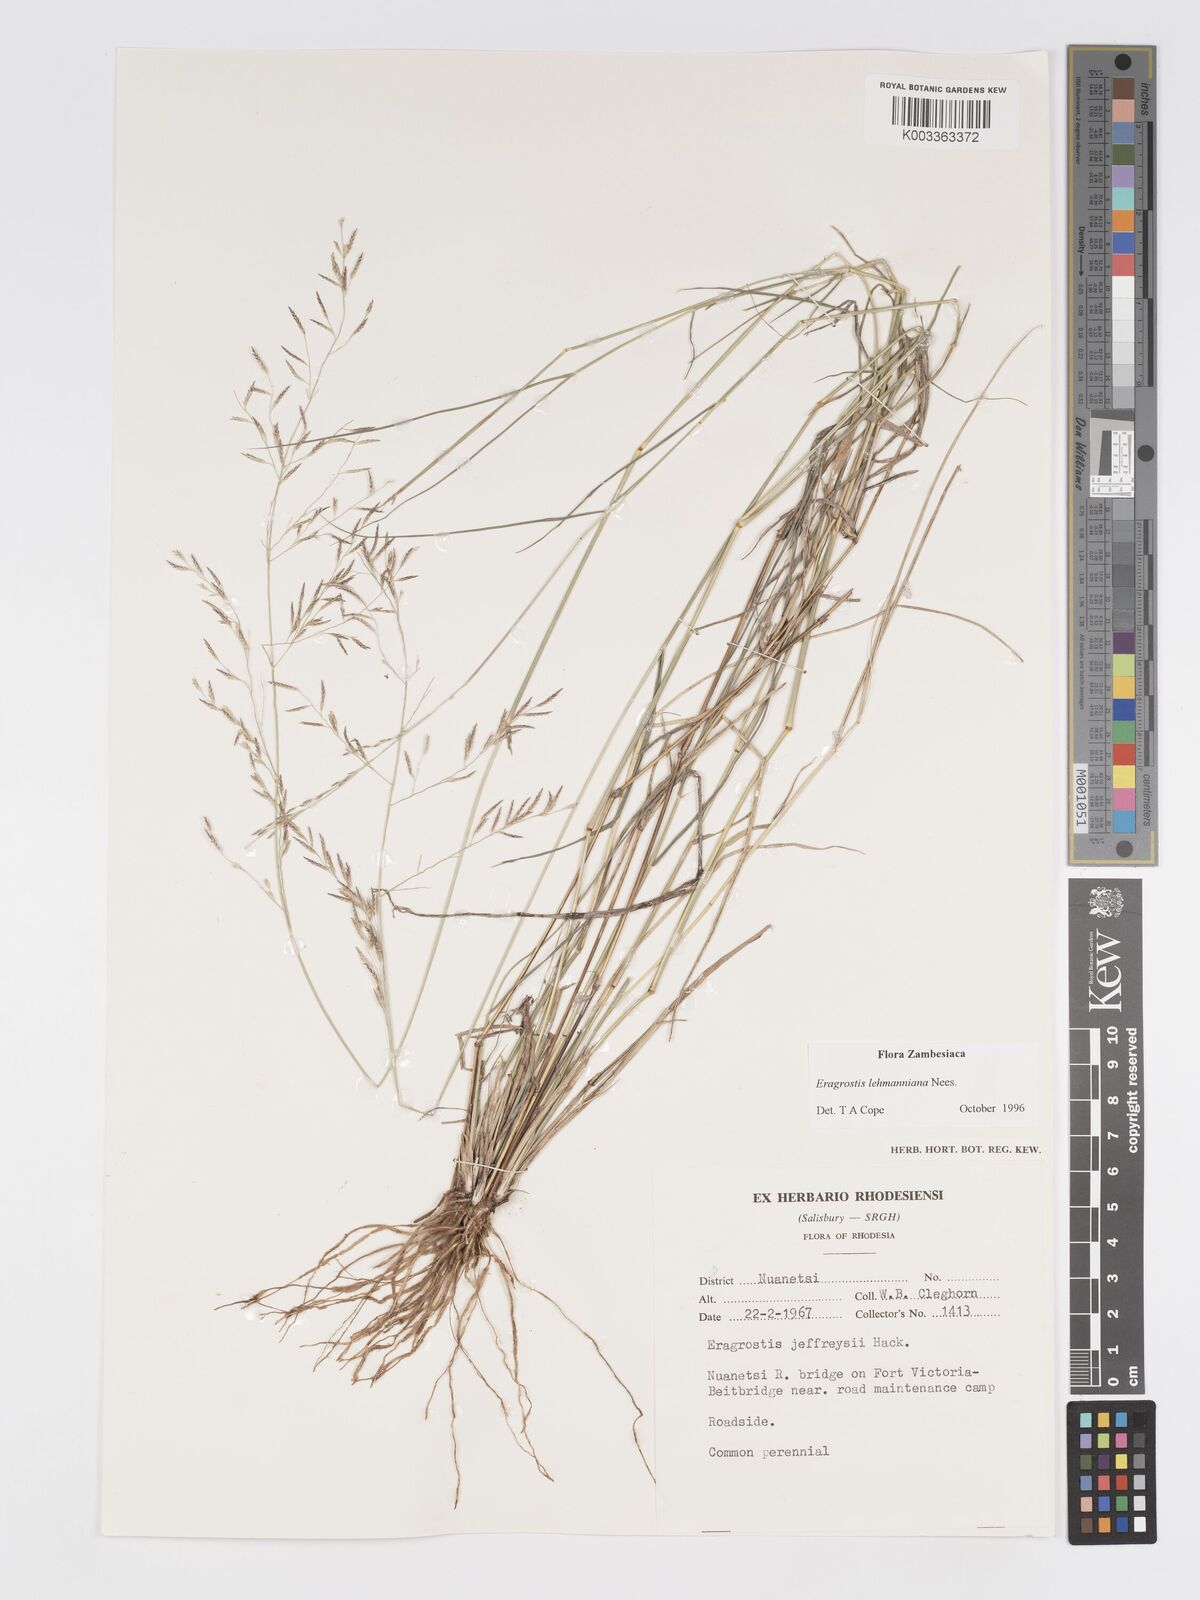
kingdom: Plantae
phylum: Tracheophyta
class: Liliopsida
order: Poales
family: Poaceae
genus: Eragrostis
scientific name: Eragrostis lehmanniana
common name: Lehmann lovegrass
